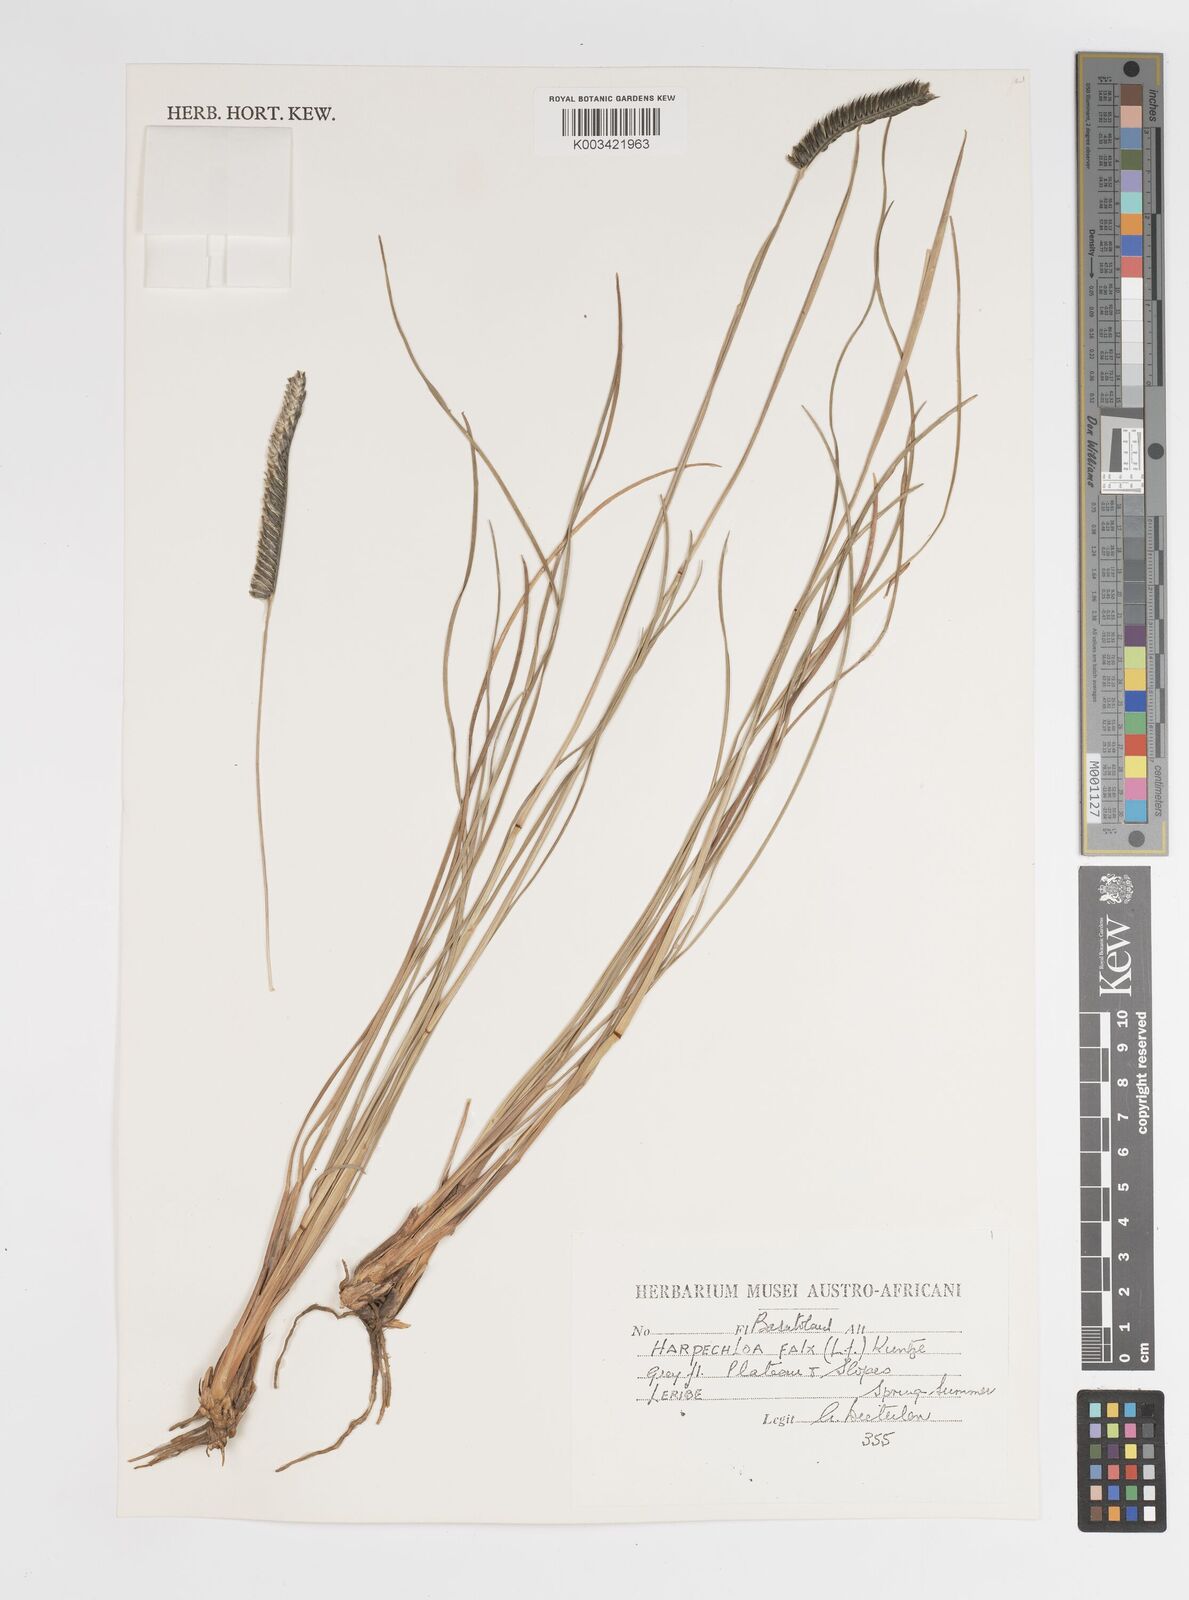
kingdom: Plantae
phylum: Tracheophyta
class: Liliopsida
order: Poales
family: Poaceae
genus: Harpochloa
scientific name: Harpochloa falx
